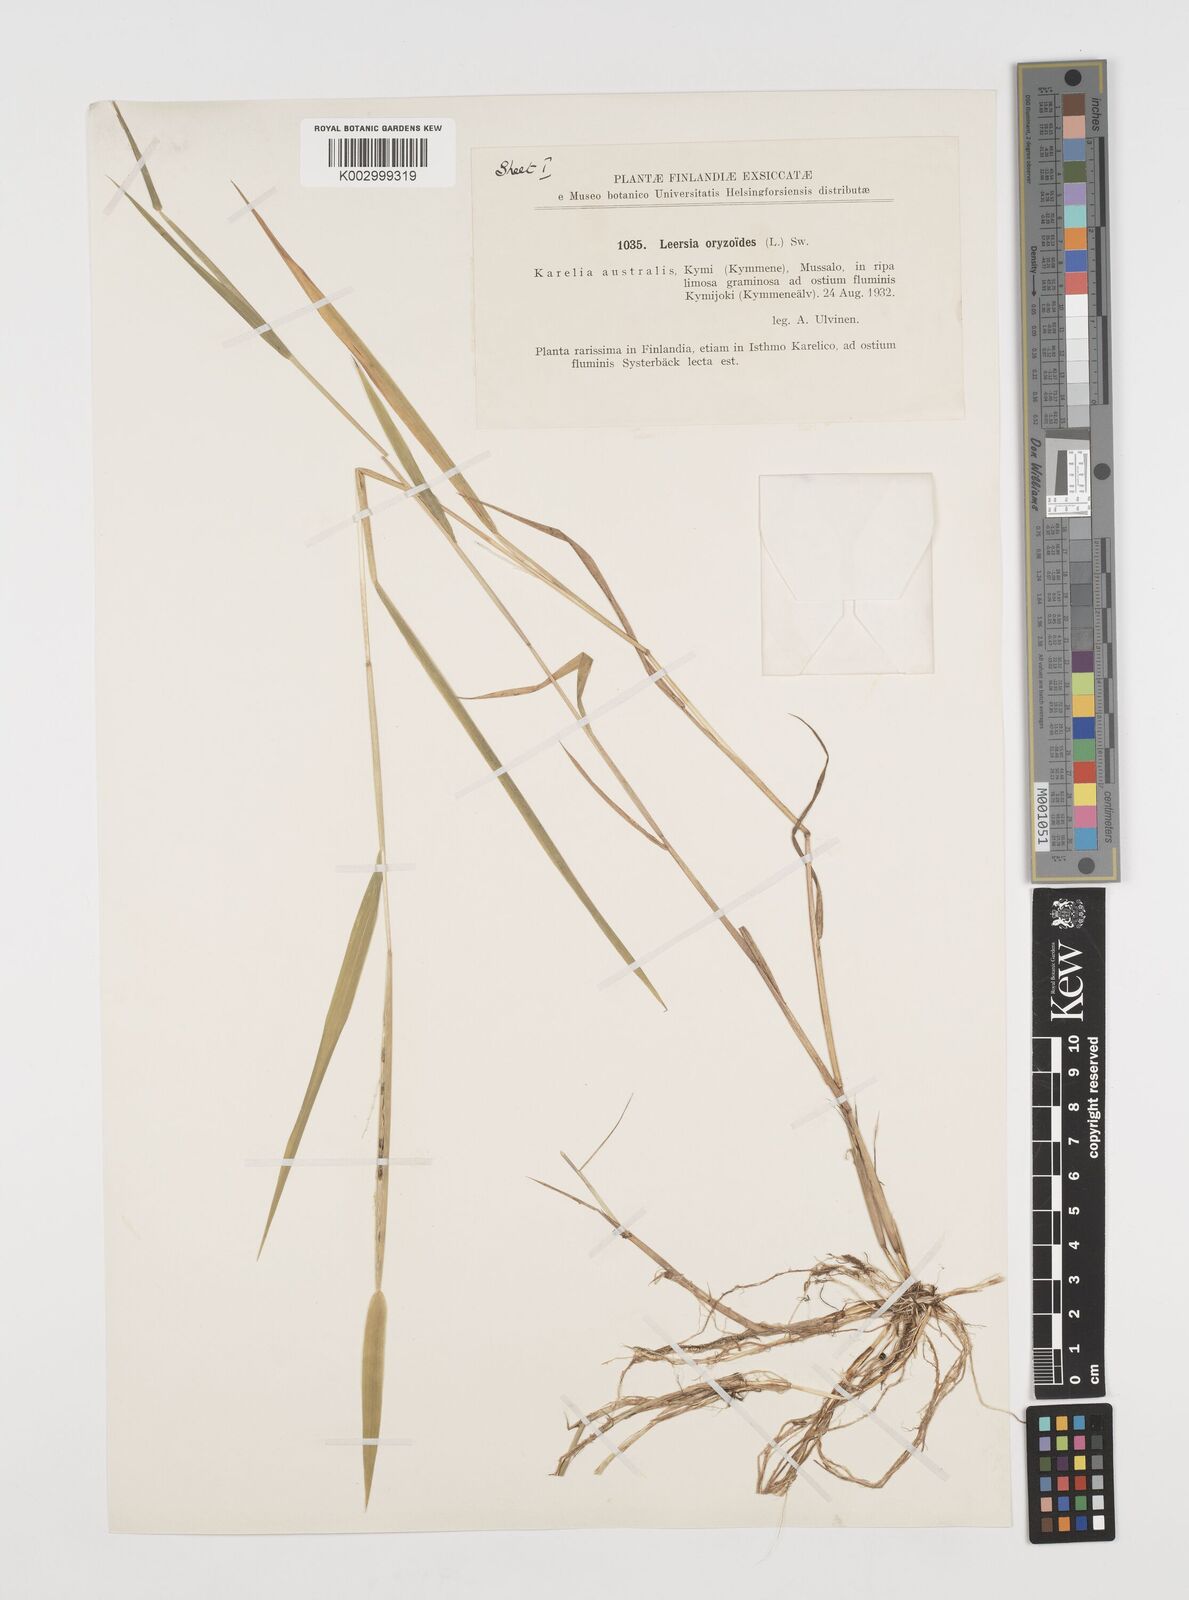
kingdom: Plantae
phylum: Tracheophyta
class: Liliopsida
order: Poales
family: Poaceae
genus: Leersia
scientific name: Leersia oryzoides
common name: Cut-grass
